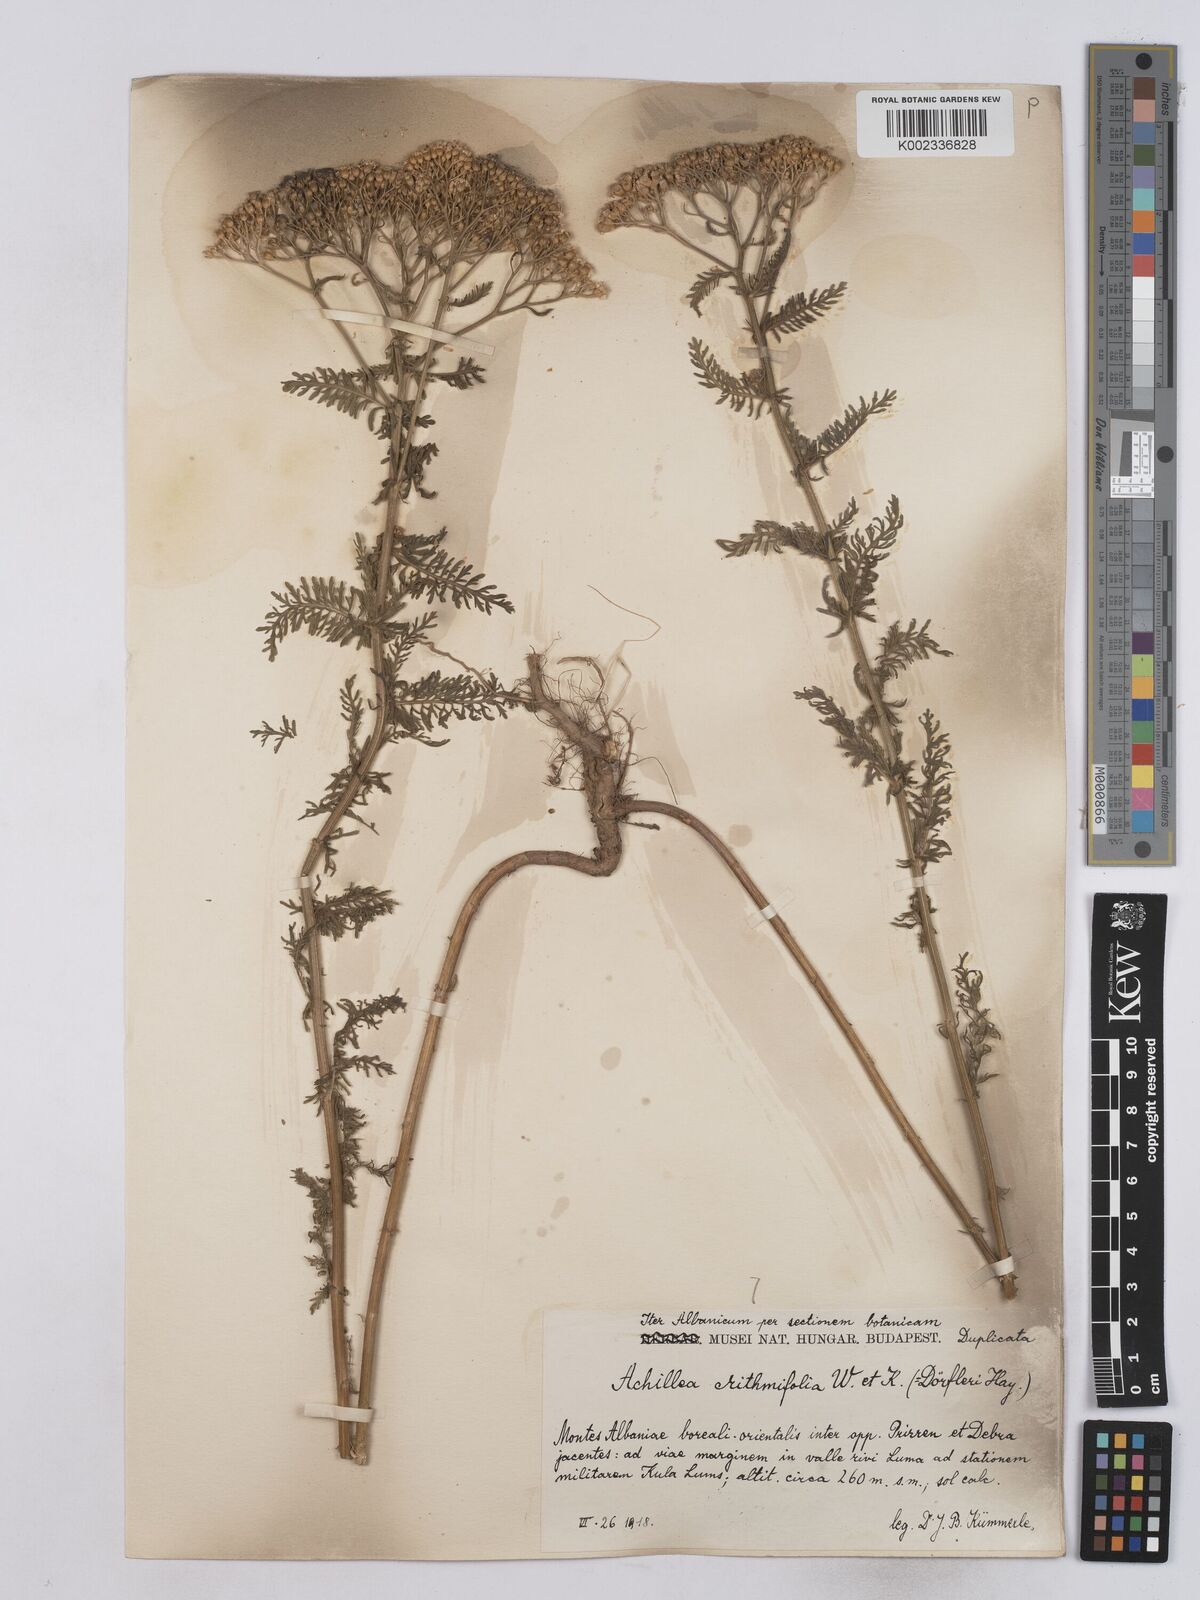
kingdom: Plantae
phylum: Tracheophyta
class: Magnoliopsida
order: Asterales
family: Asteraceae
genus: Achillea
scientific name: Achillea crithmifolia
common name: Yarrow
